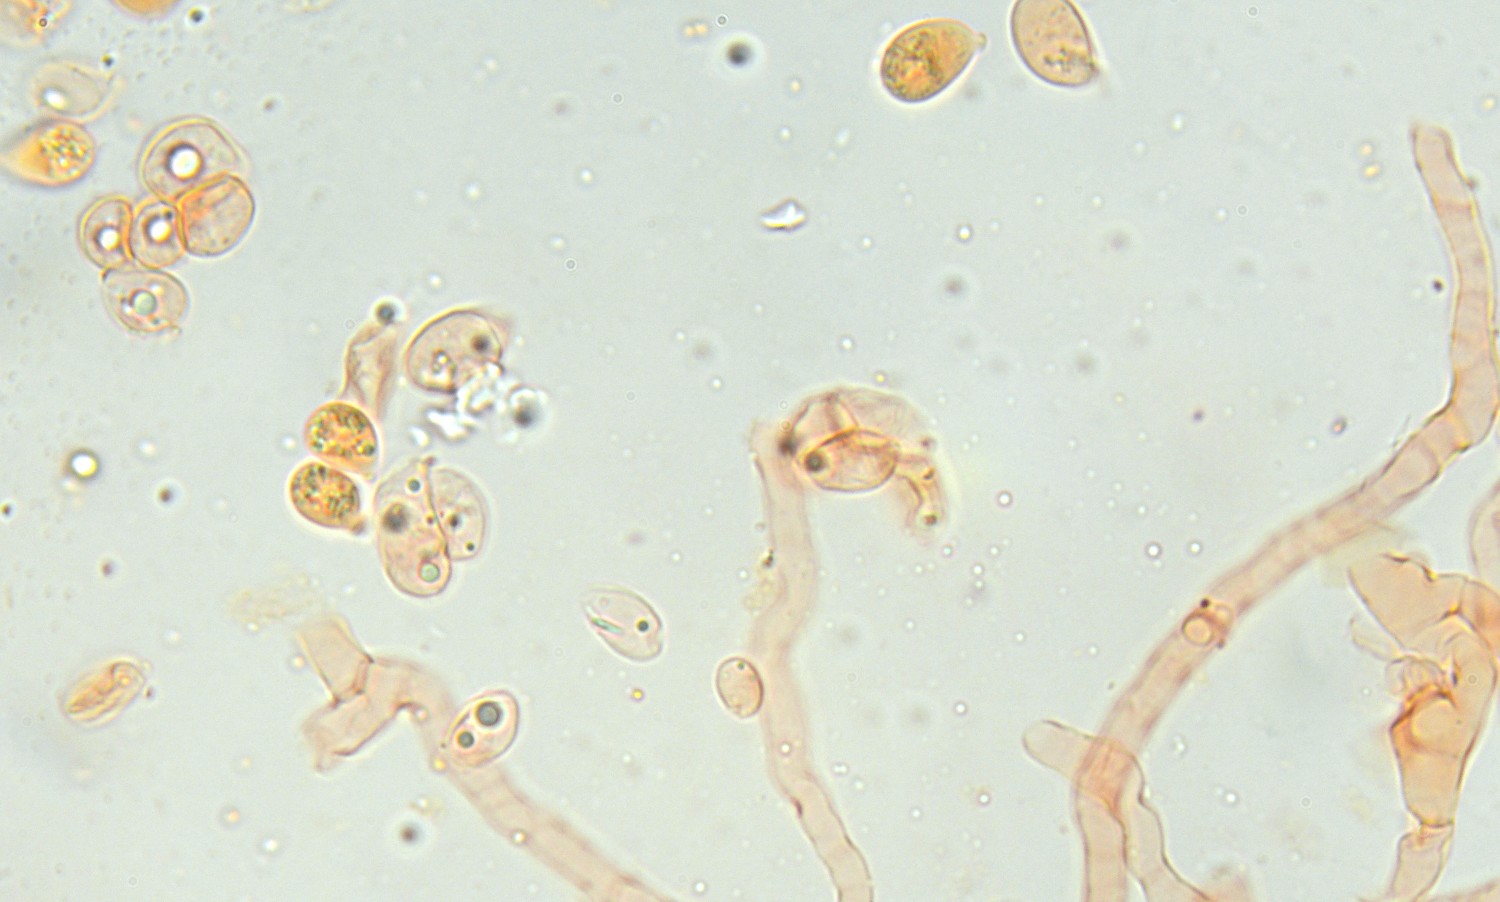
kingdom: Fungi
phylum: Basidiomycota
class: Agaricomycetes
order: Agaricales
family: Hygrophoraceae
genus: Arrhenia
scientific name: Arrhenia griseopallida
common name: bleggrå fontænehat
